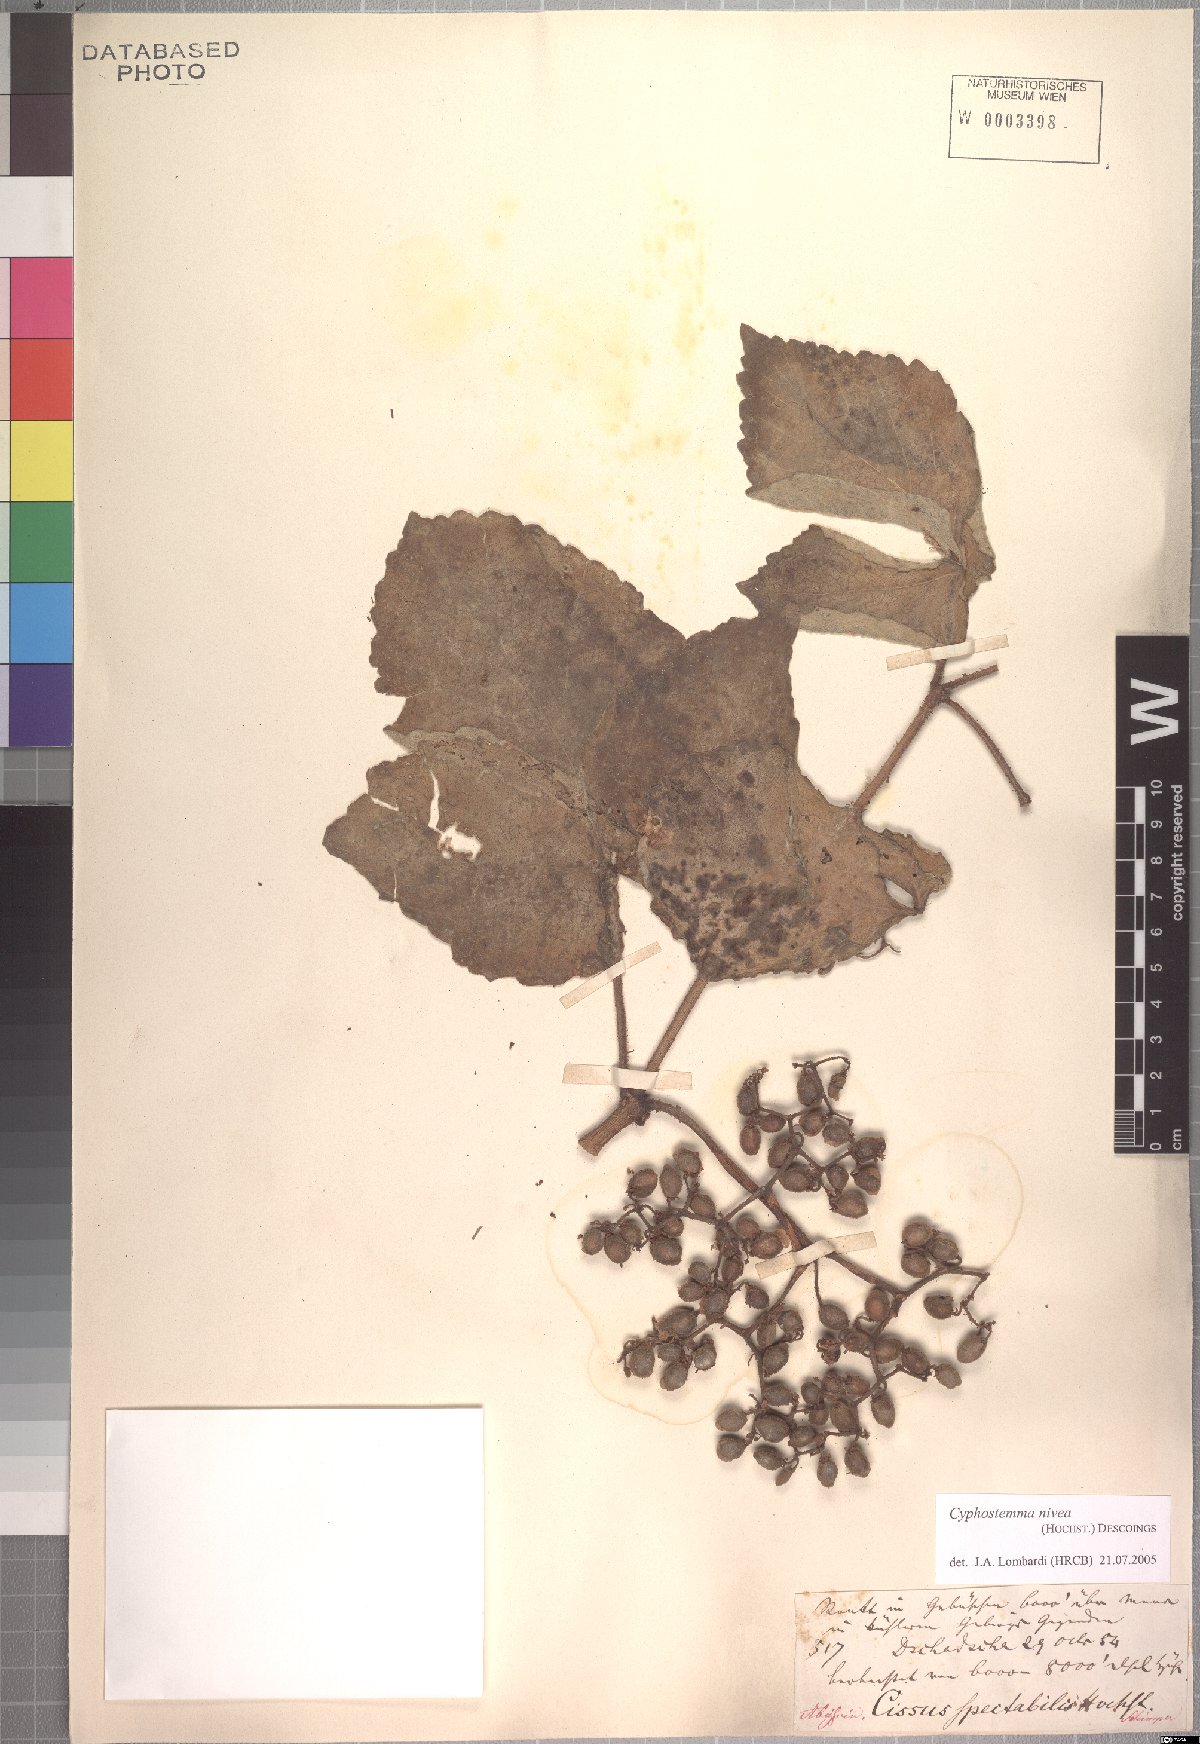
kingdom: Plantae
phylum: Tracheophyta
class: Magnoliopsida
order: Vitales
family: Vitaceae
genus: Cyphostemma
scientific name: Cyphostemma niveum
